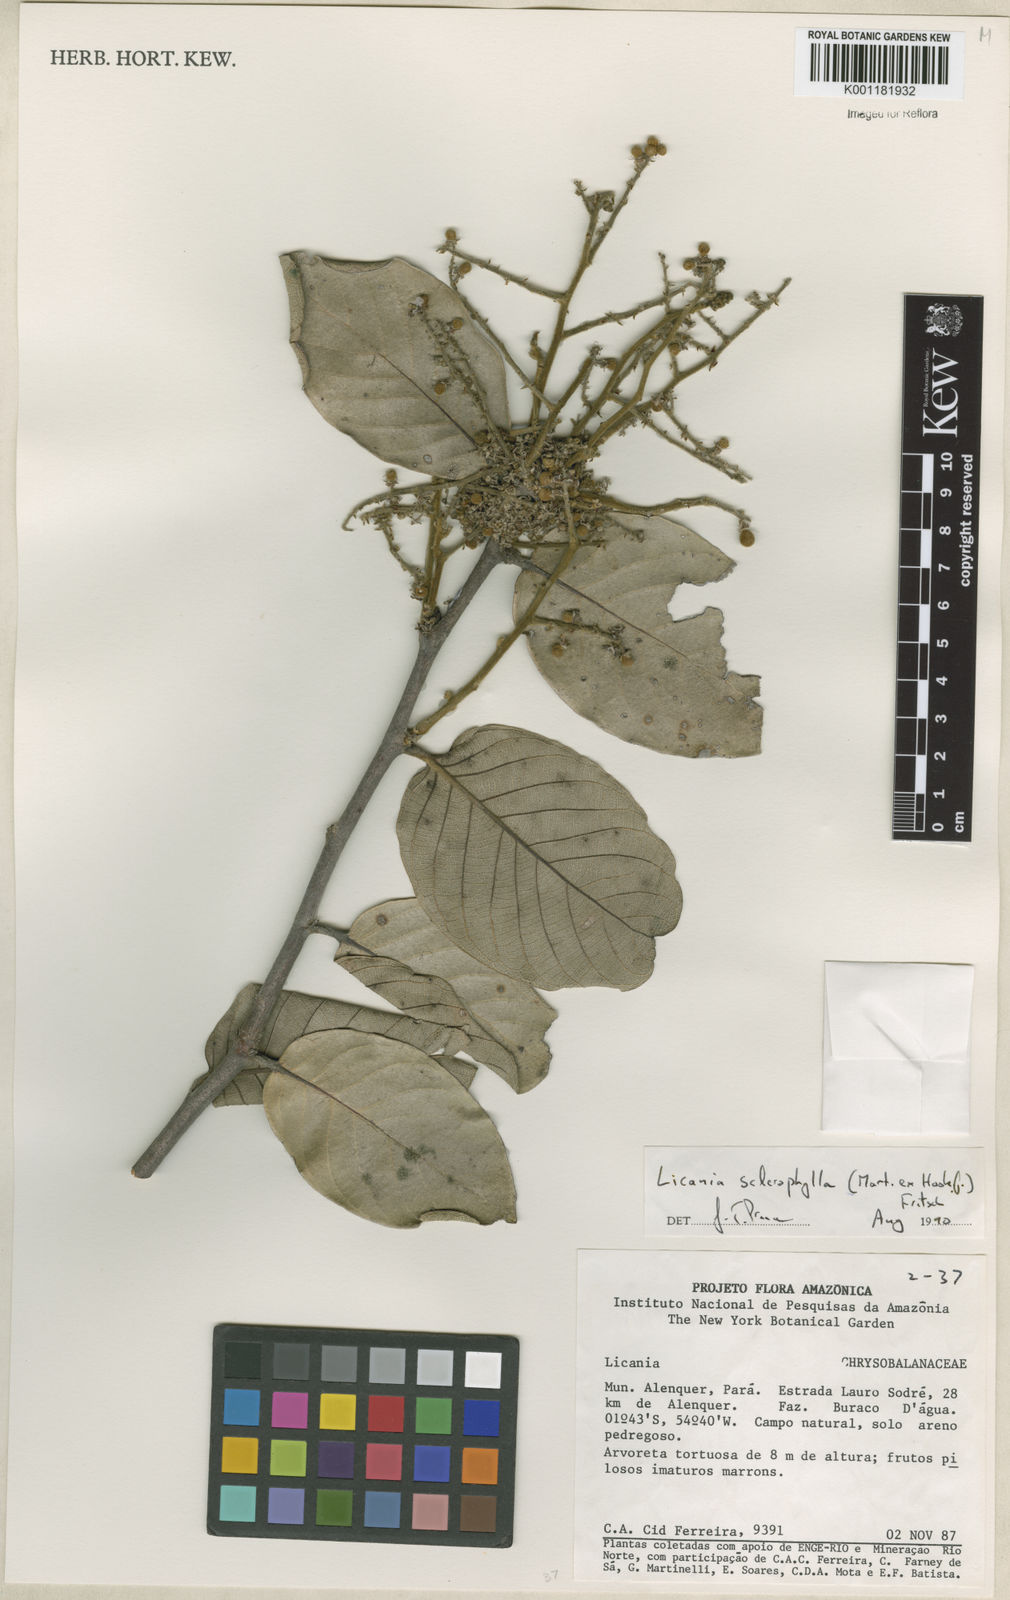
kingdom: Plantae
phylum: Tracheophyta
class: Magnoliopsida
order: Malpighiales
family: Chrysobalanaceae
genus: Leptobalanus
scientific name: Leptobalanus sclerophyllus
